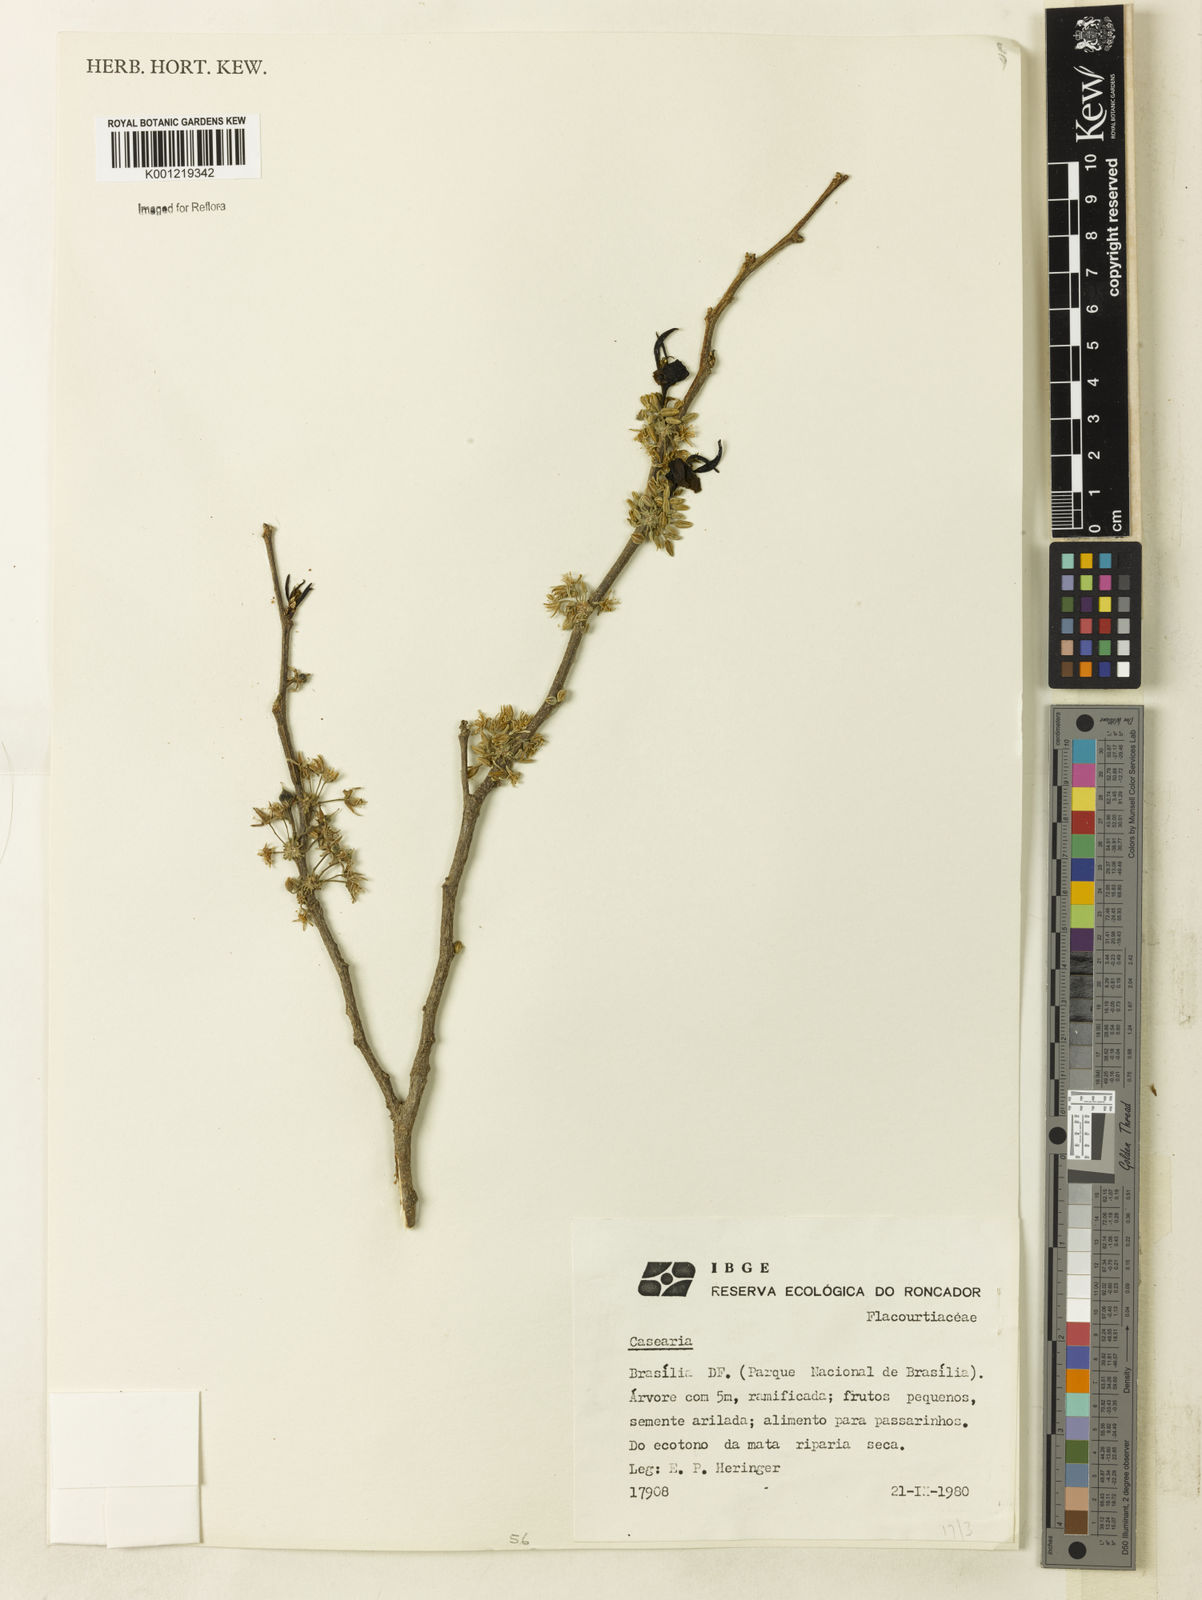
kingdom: Plantae
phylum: Tracheophyta
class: Magnoliopsida
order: Malpighiales
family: Salicaceae
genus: Casearia
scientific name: Casearia
